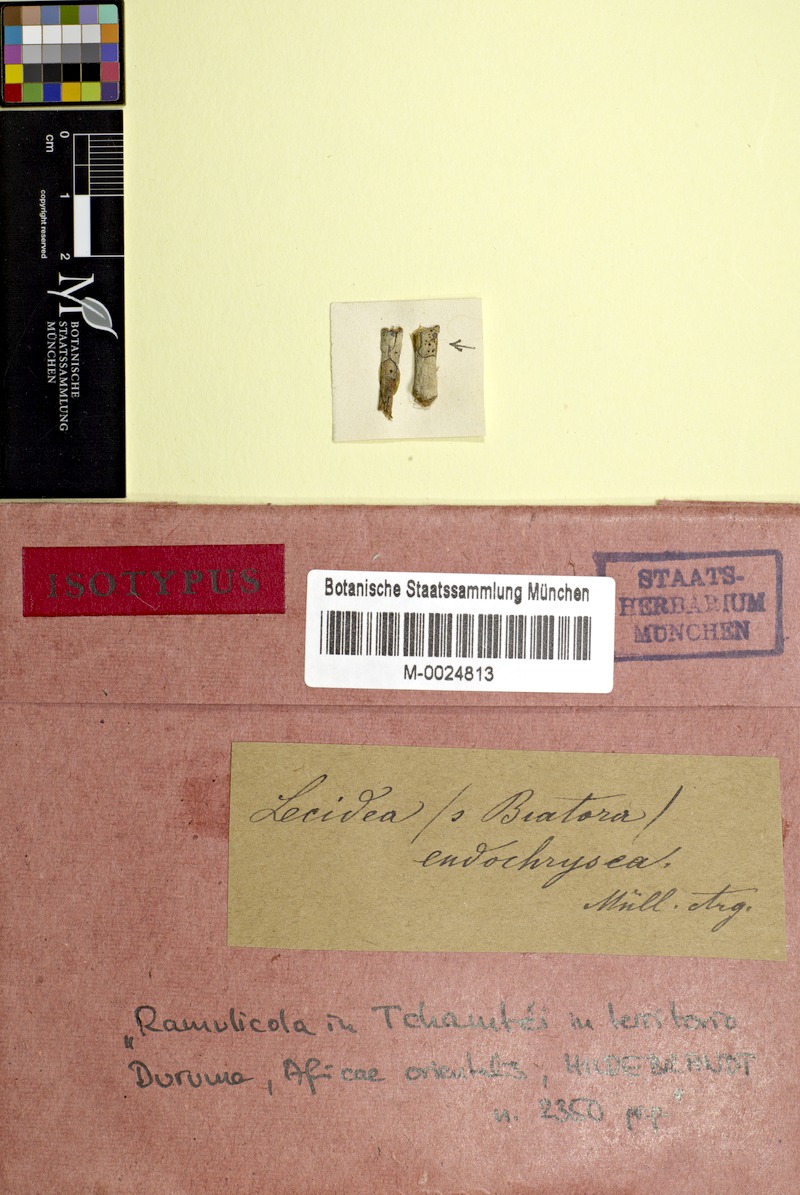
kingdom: Fungi
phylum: Ascomycota
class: Lecanoromycetes
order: Lecideales
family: Lecideaceae
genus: Lecidea
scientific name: Lecidea
